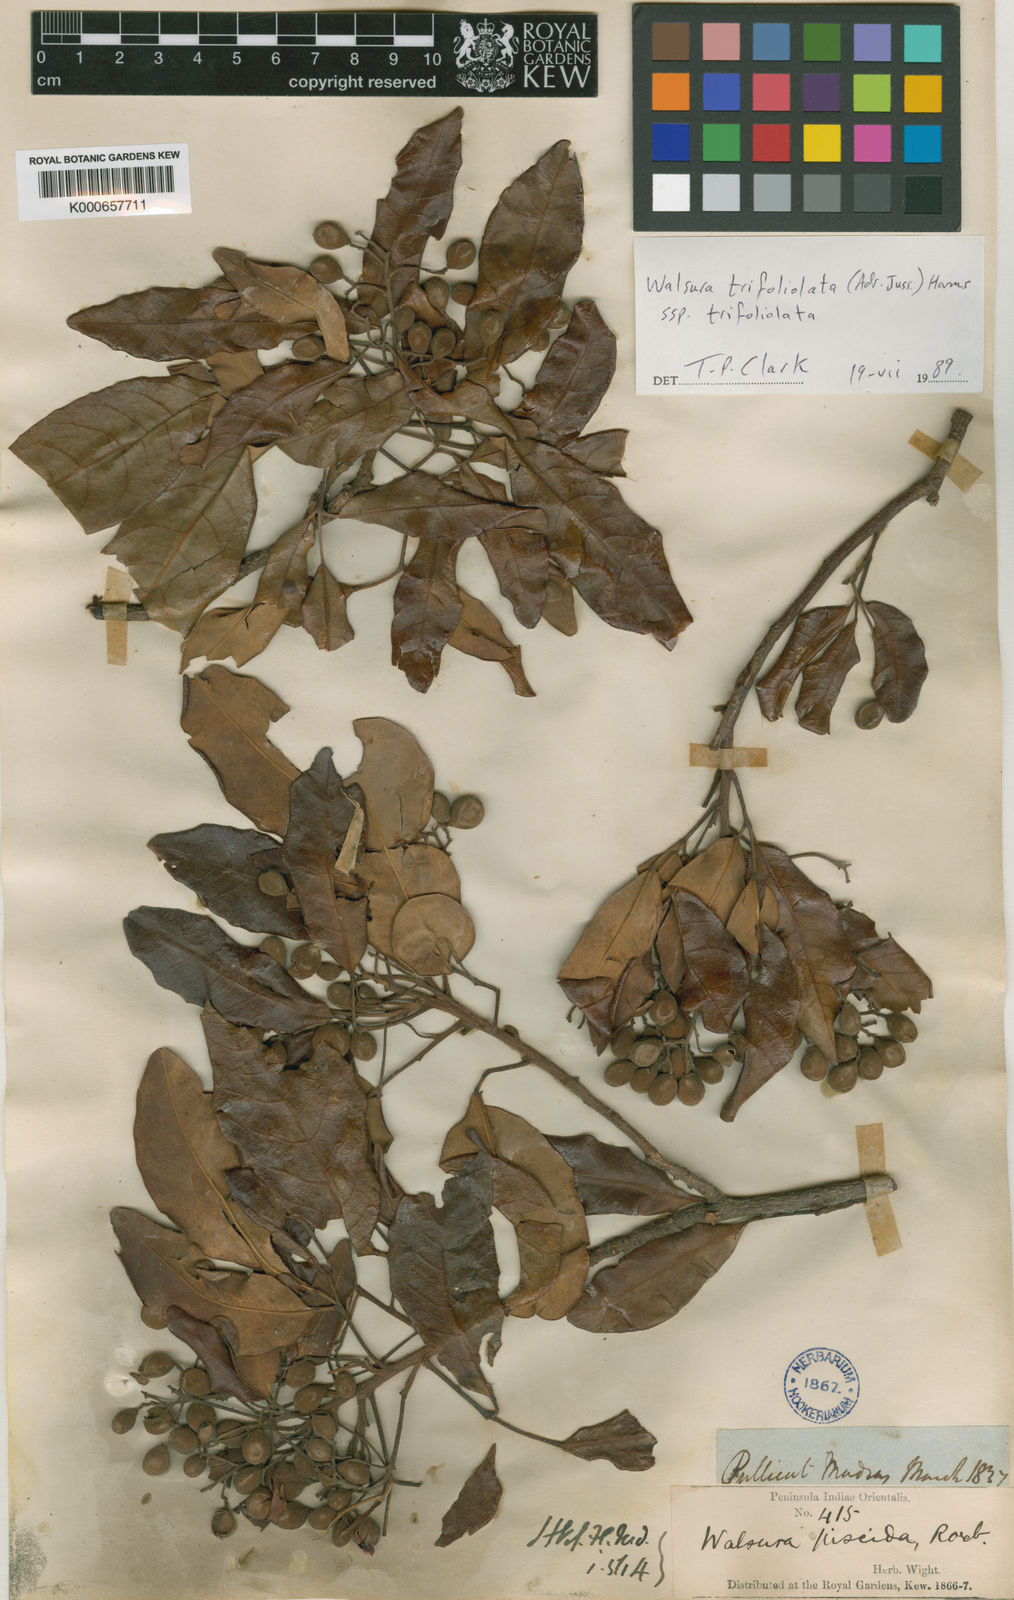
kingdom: Plantae
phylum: Tracheophyta
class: Magnoliopsida
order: Sapindales
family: Meliaceae
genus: Walsura
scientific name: Walsura trifoliolata
